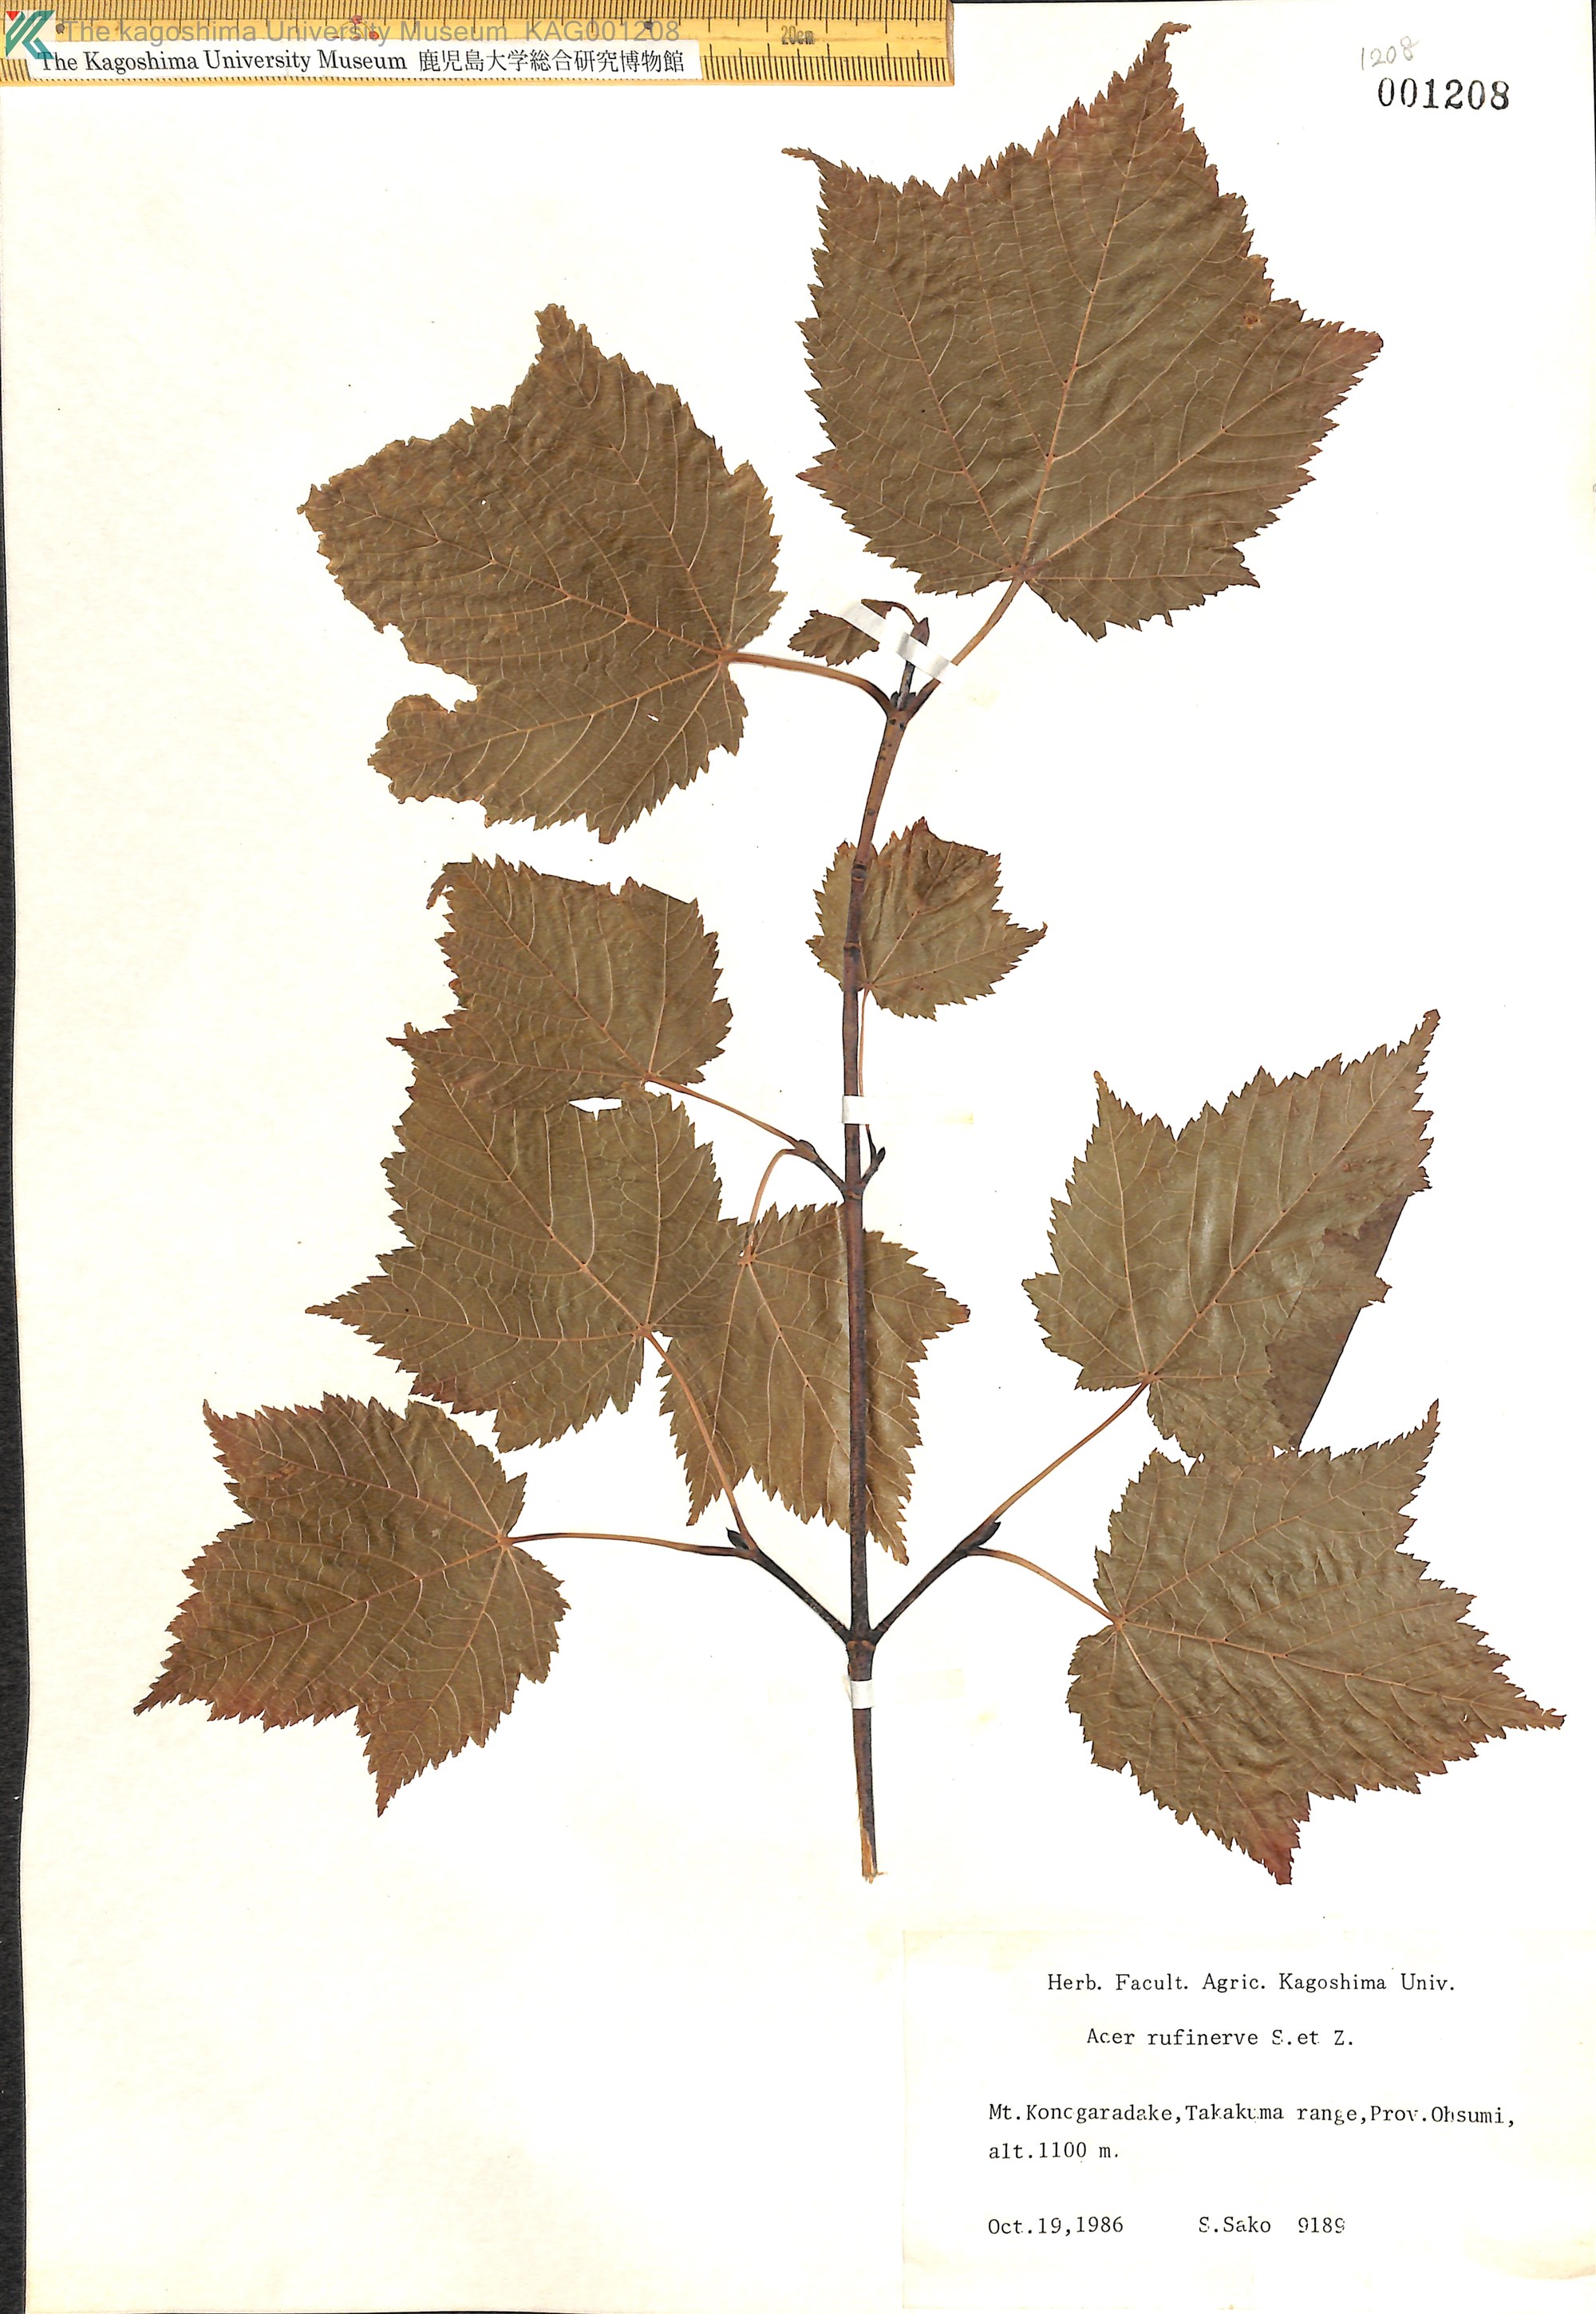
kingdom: Plantae
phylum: Tracheophyta
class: Magnoliopsida
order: Sapindales
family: Sapindaceae
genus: Acer
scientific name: Acer rufinerve
